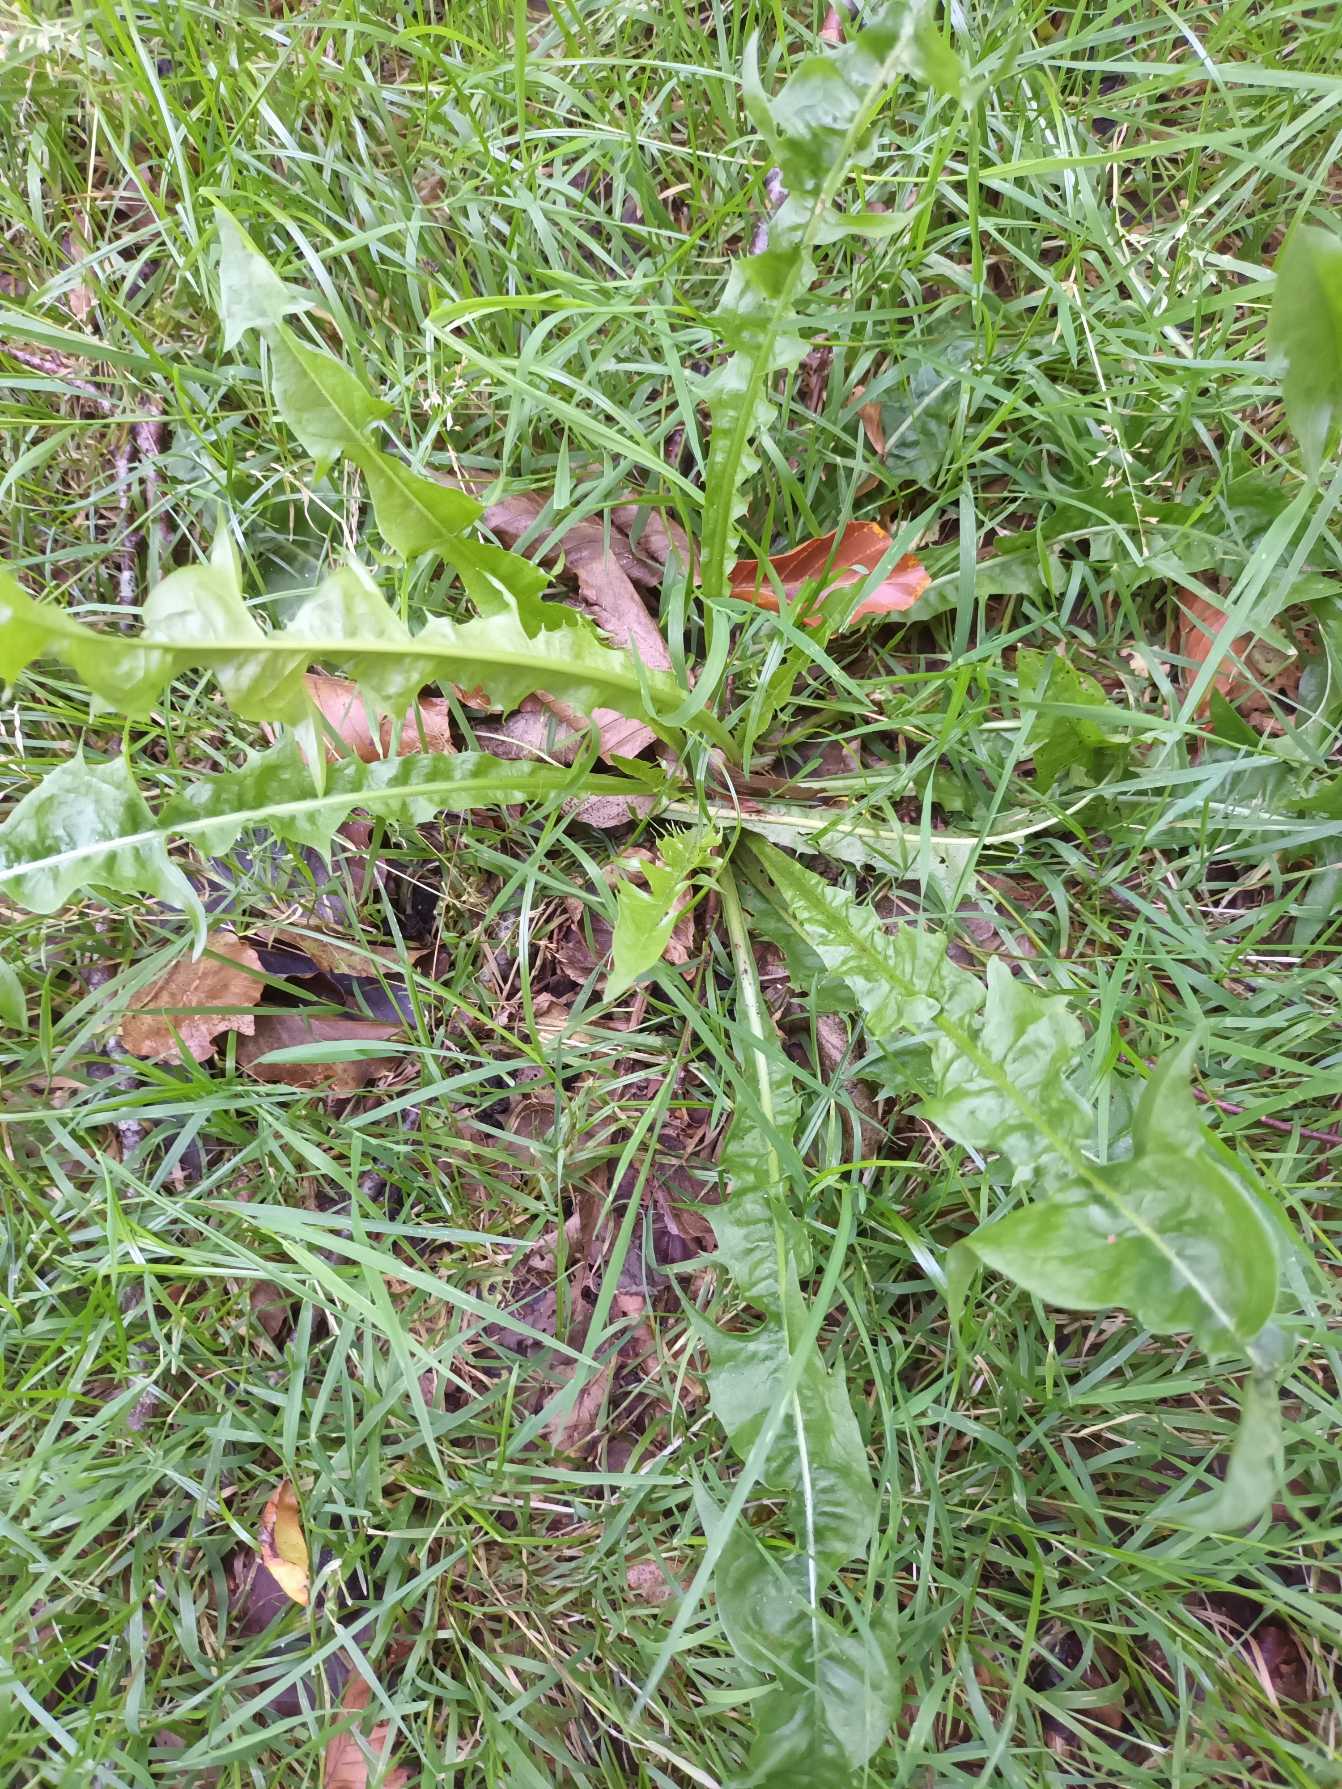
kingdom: Plantae
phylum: Tracheophyta
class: Magnoliopsida
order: Asterales
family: Asteraceae
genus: Taraxacum
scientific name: Taraxacum
